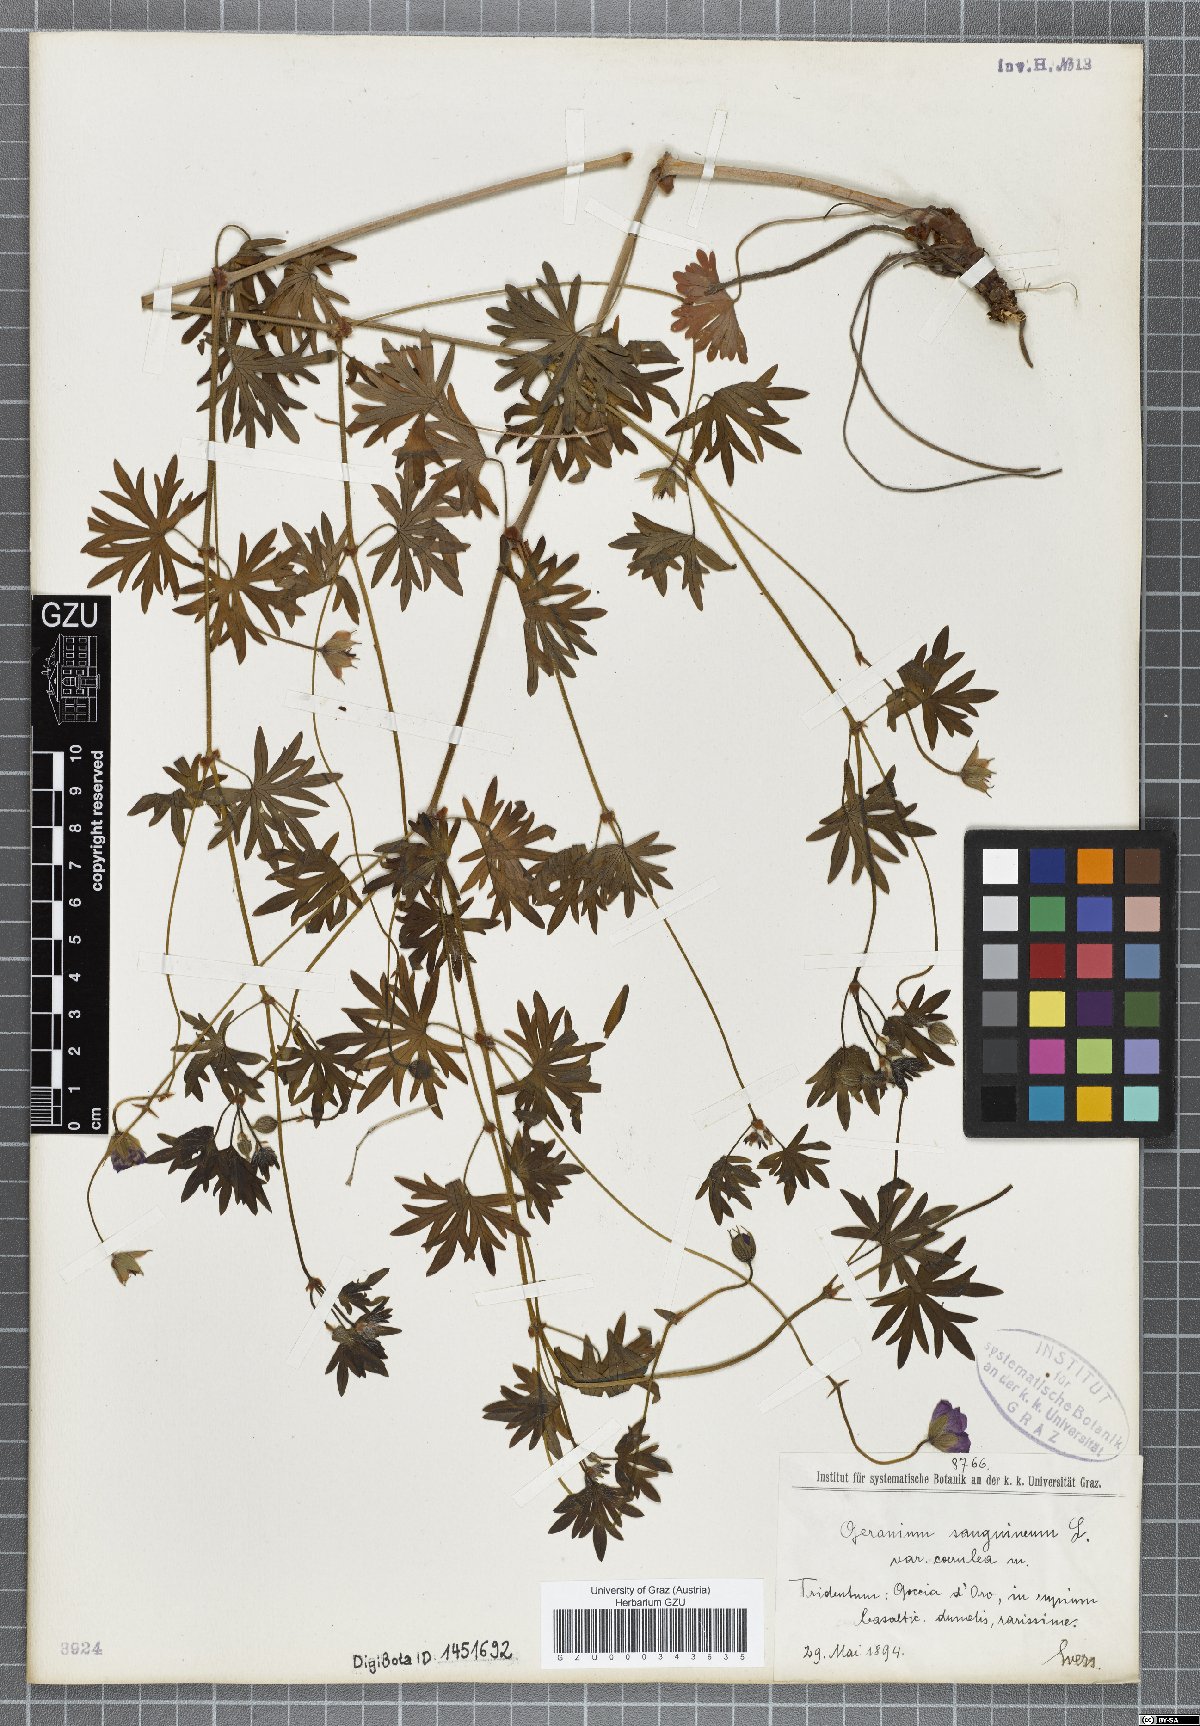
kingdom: Plantae
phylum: Tracheophyta
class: Magnoliopsida
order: Geraniales
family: Geraniaceae
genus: Geranium
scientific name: Geranium sanguineum
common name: Bloody crane's-bill
